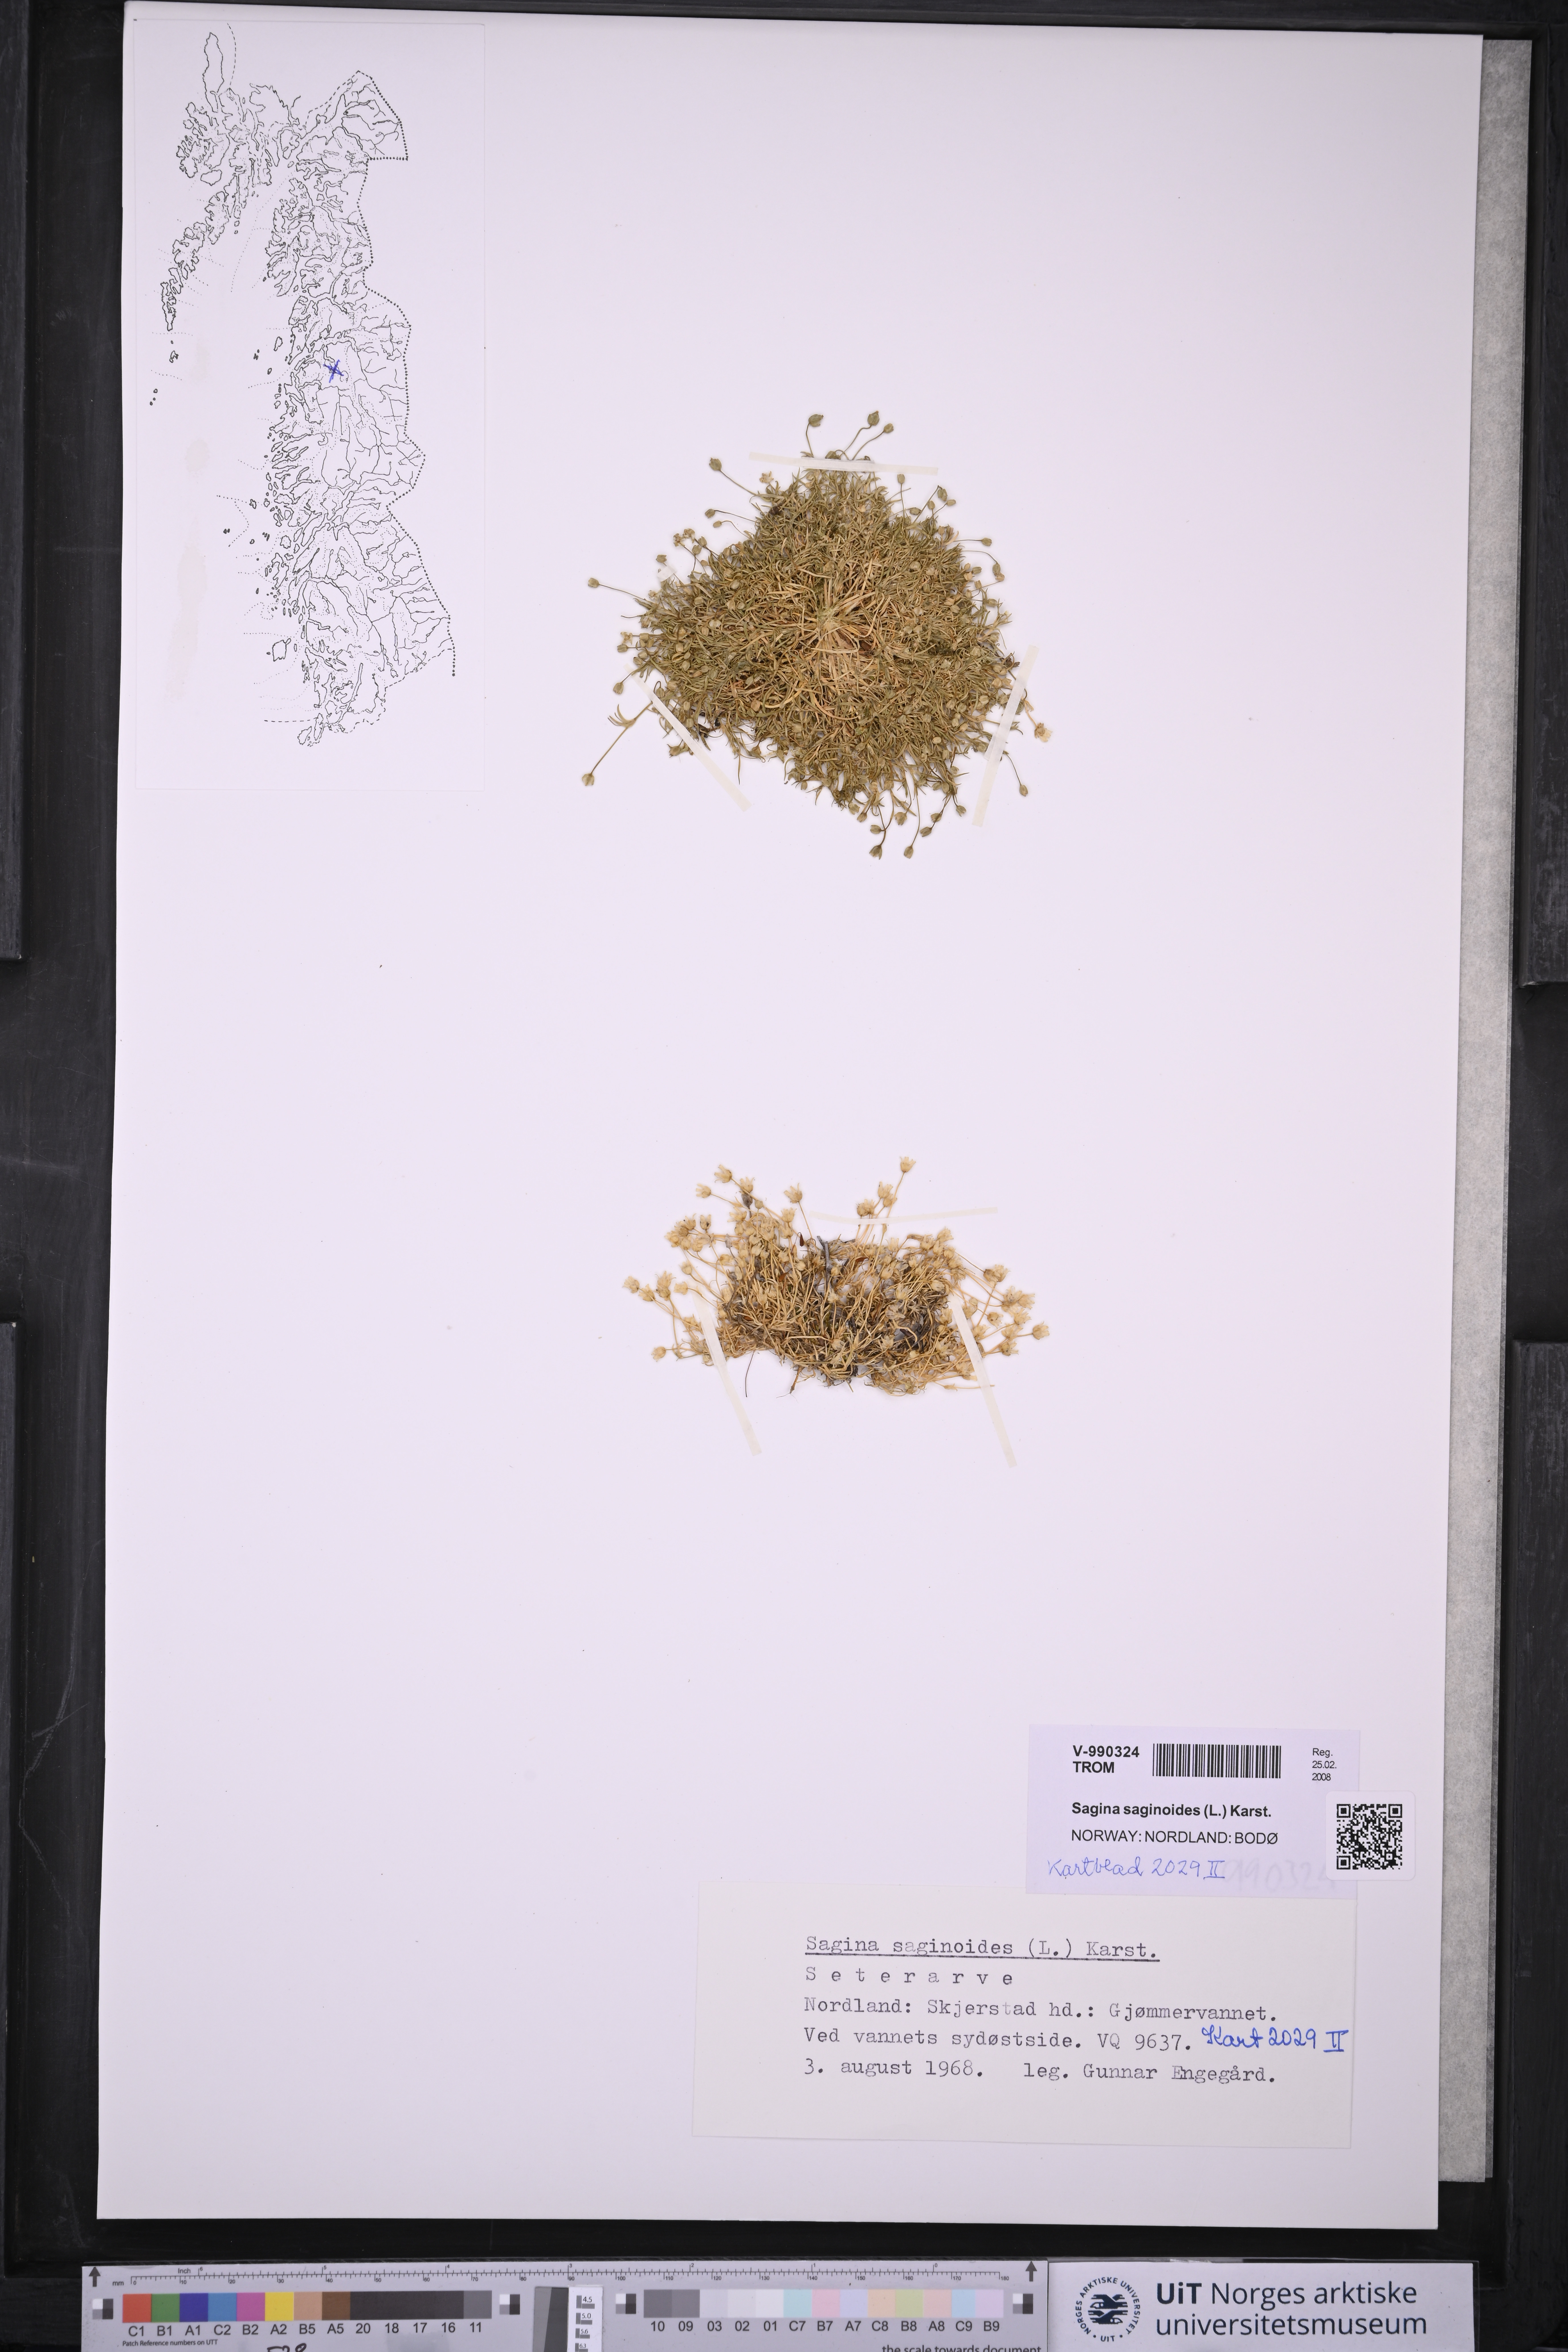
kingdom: Plantae
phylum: Tracheophyta
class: Magnoliopsida
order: Caryophyllales
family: Caryophyllaceae
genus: Sagina
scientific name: Sagina saginoides
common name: Alpine pearlwort
